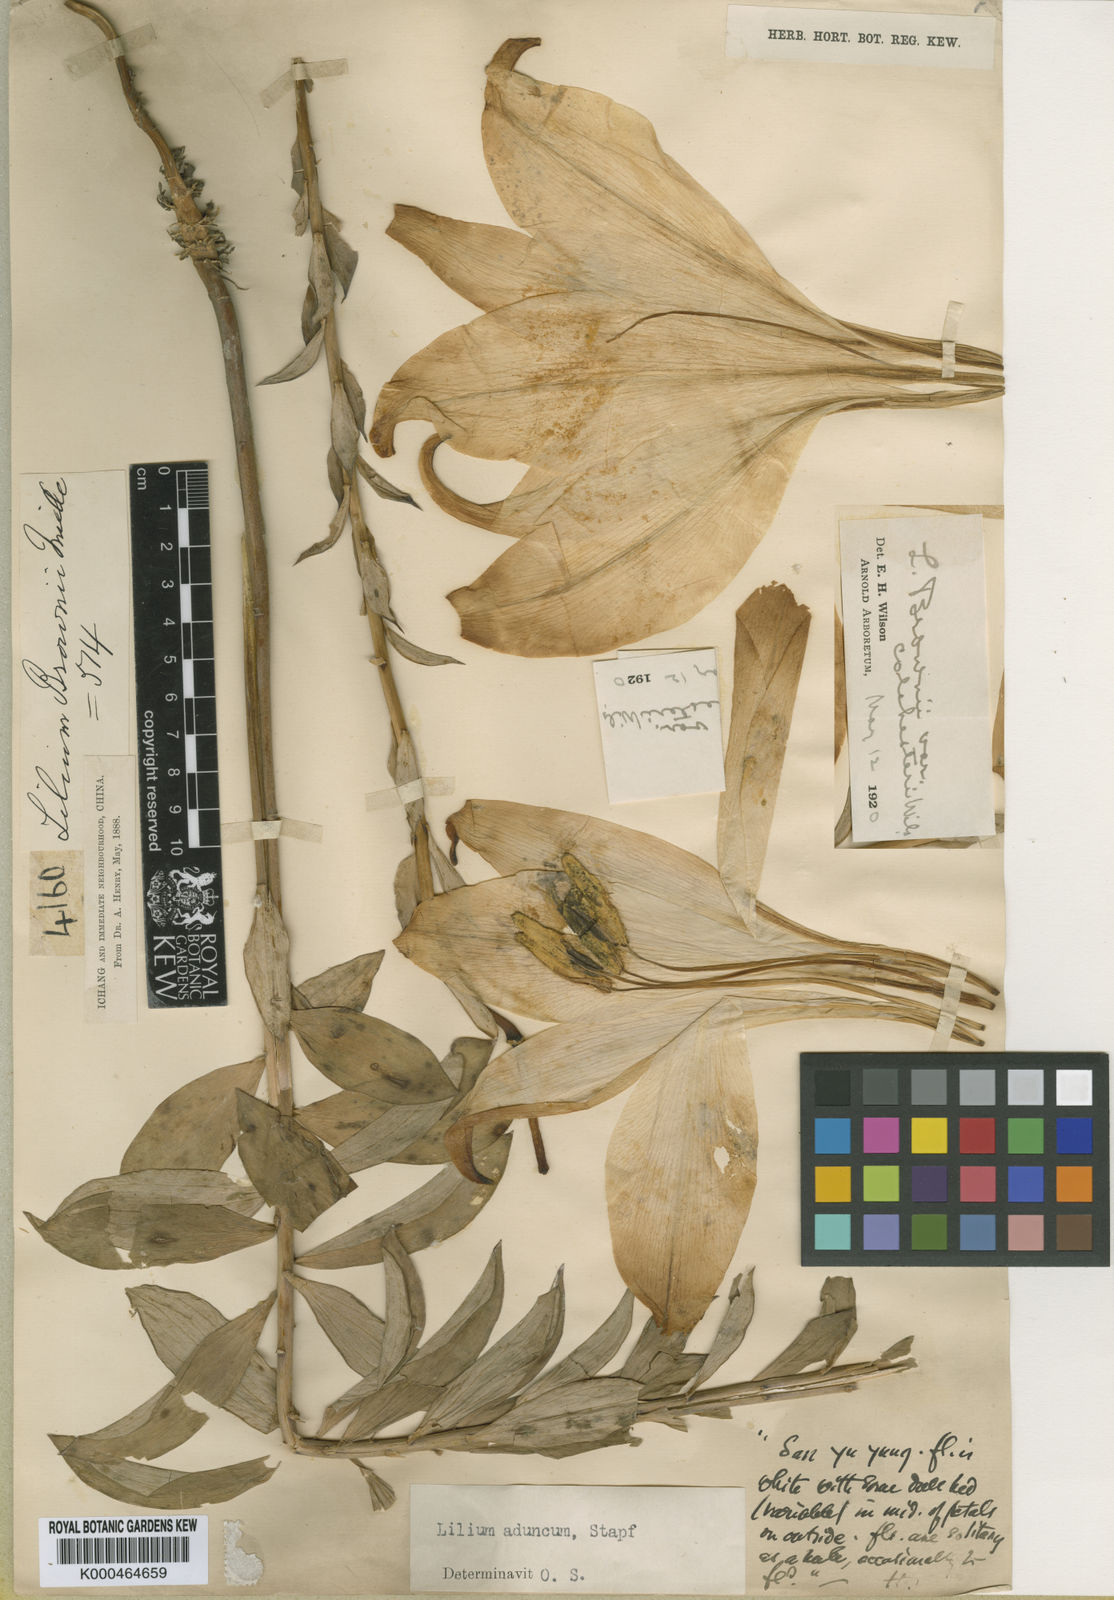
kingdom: Plantae
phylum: Tracheophyta
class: Liliopsida
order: Liliales
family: Liliaceae
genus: Lilium
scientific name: Lilium brownii
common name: Brown's lily
